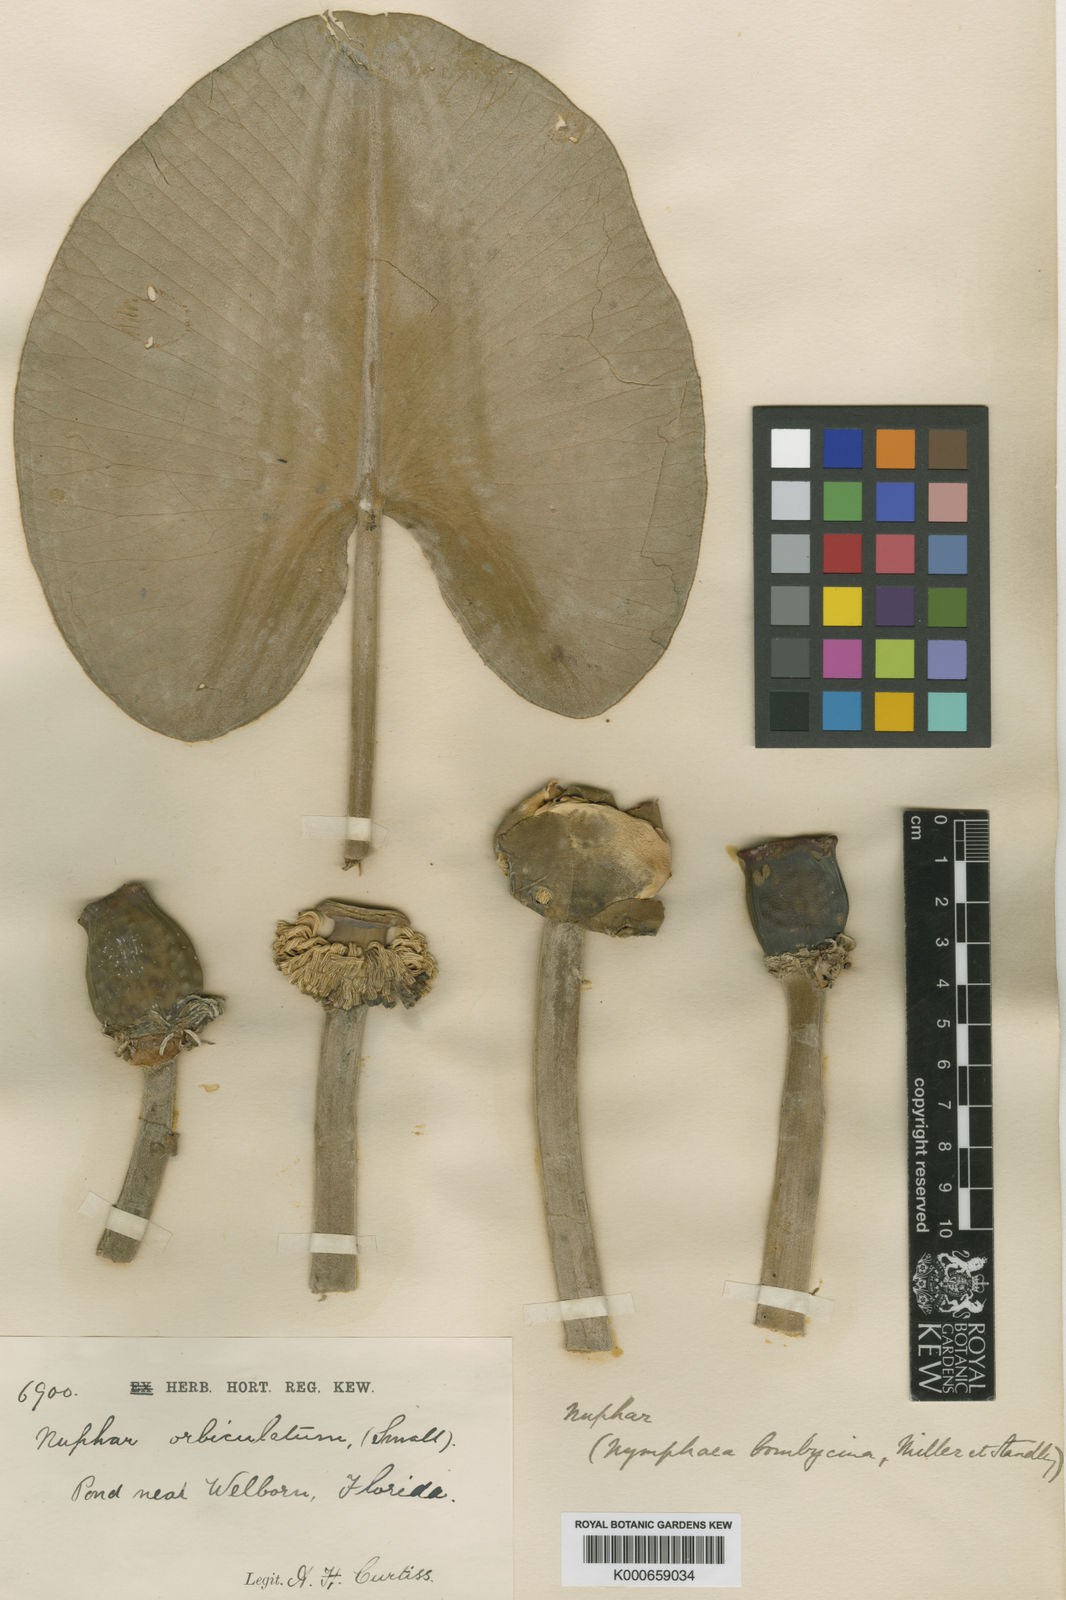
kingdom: Plantae
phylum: Tracheophyta
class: Magnoliopsida
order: Nymphaeales
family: Nymphaeaceae
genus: Nuphar
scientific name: Nuphar advena
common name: Spatter-dock
